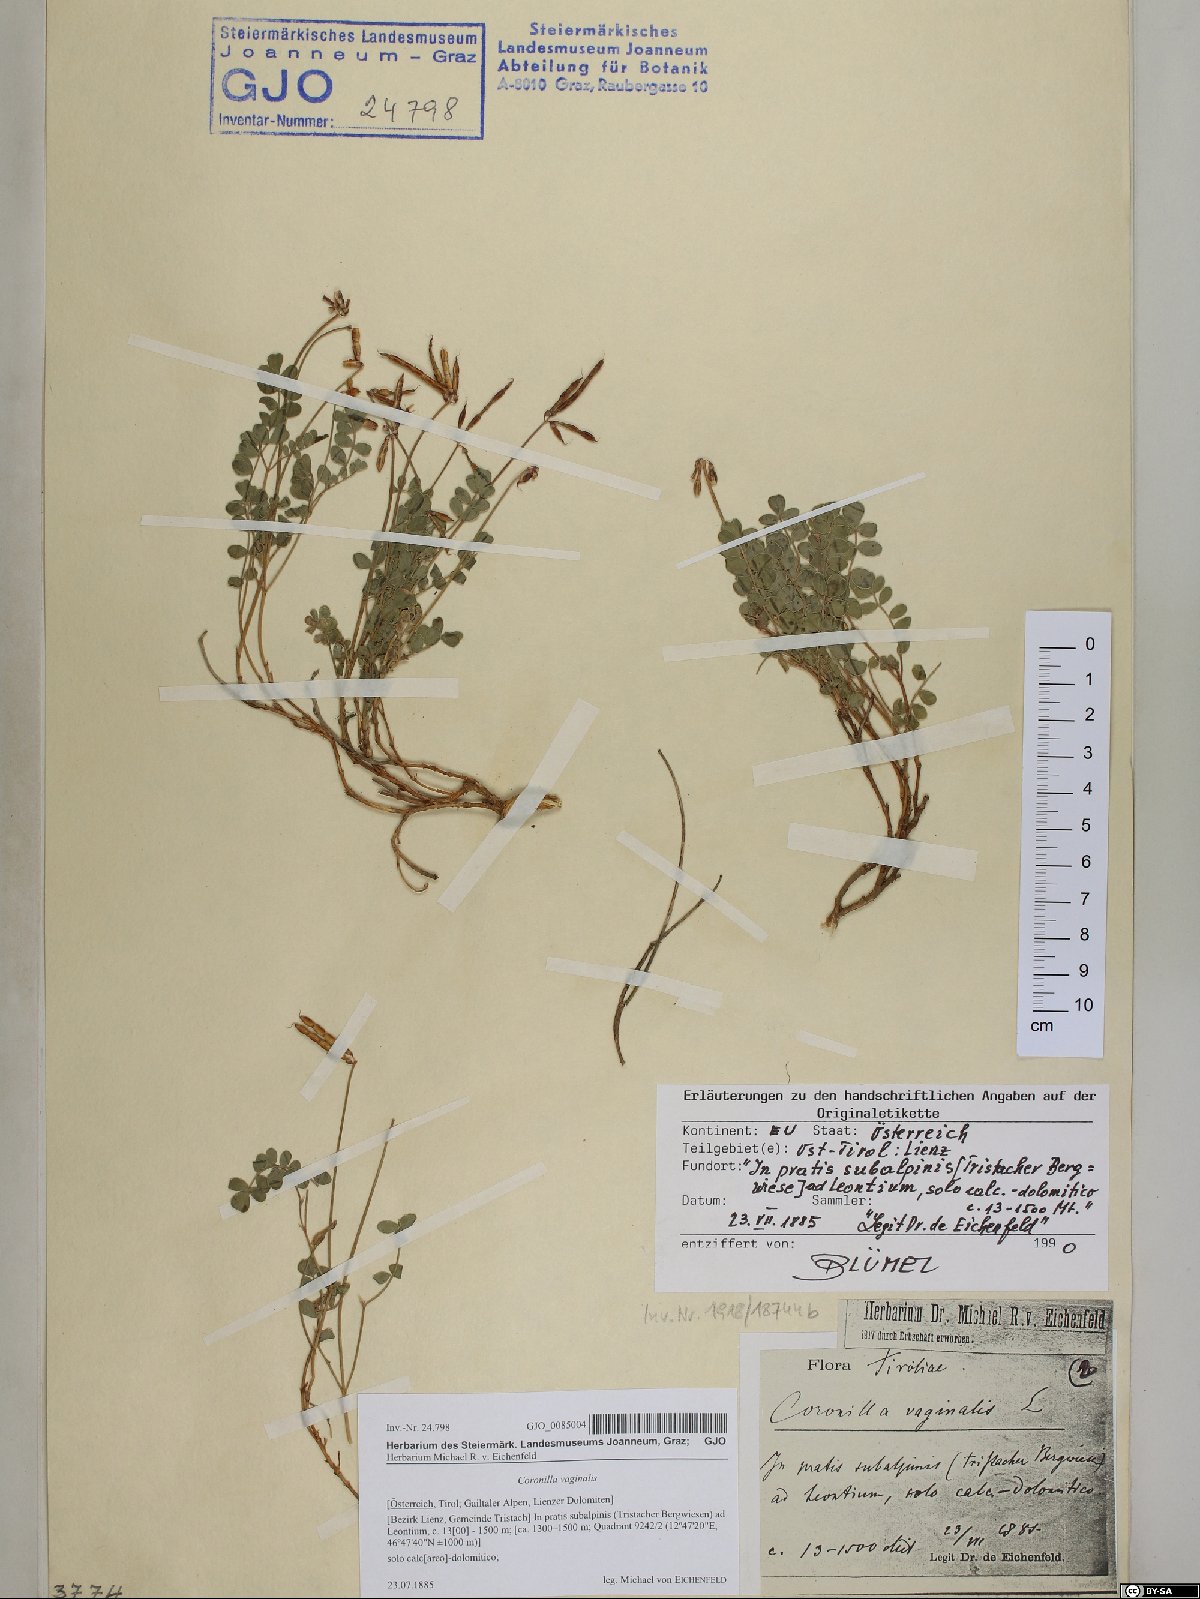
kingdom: Plantae
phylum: Tracheophyta
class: Magnoliopsida
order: Fabales
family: Fabaceae
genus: Coronilla
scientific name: Coronilla vaginalis
